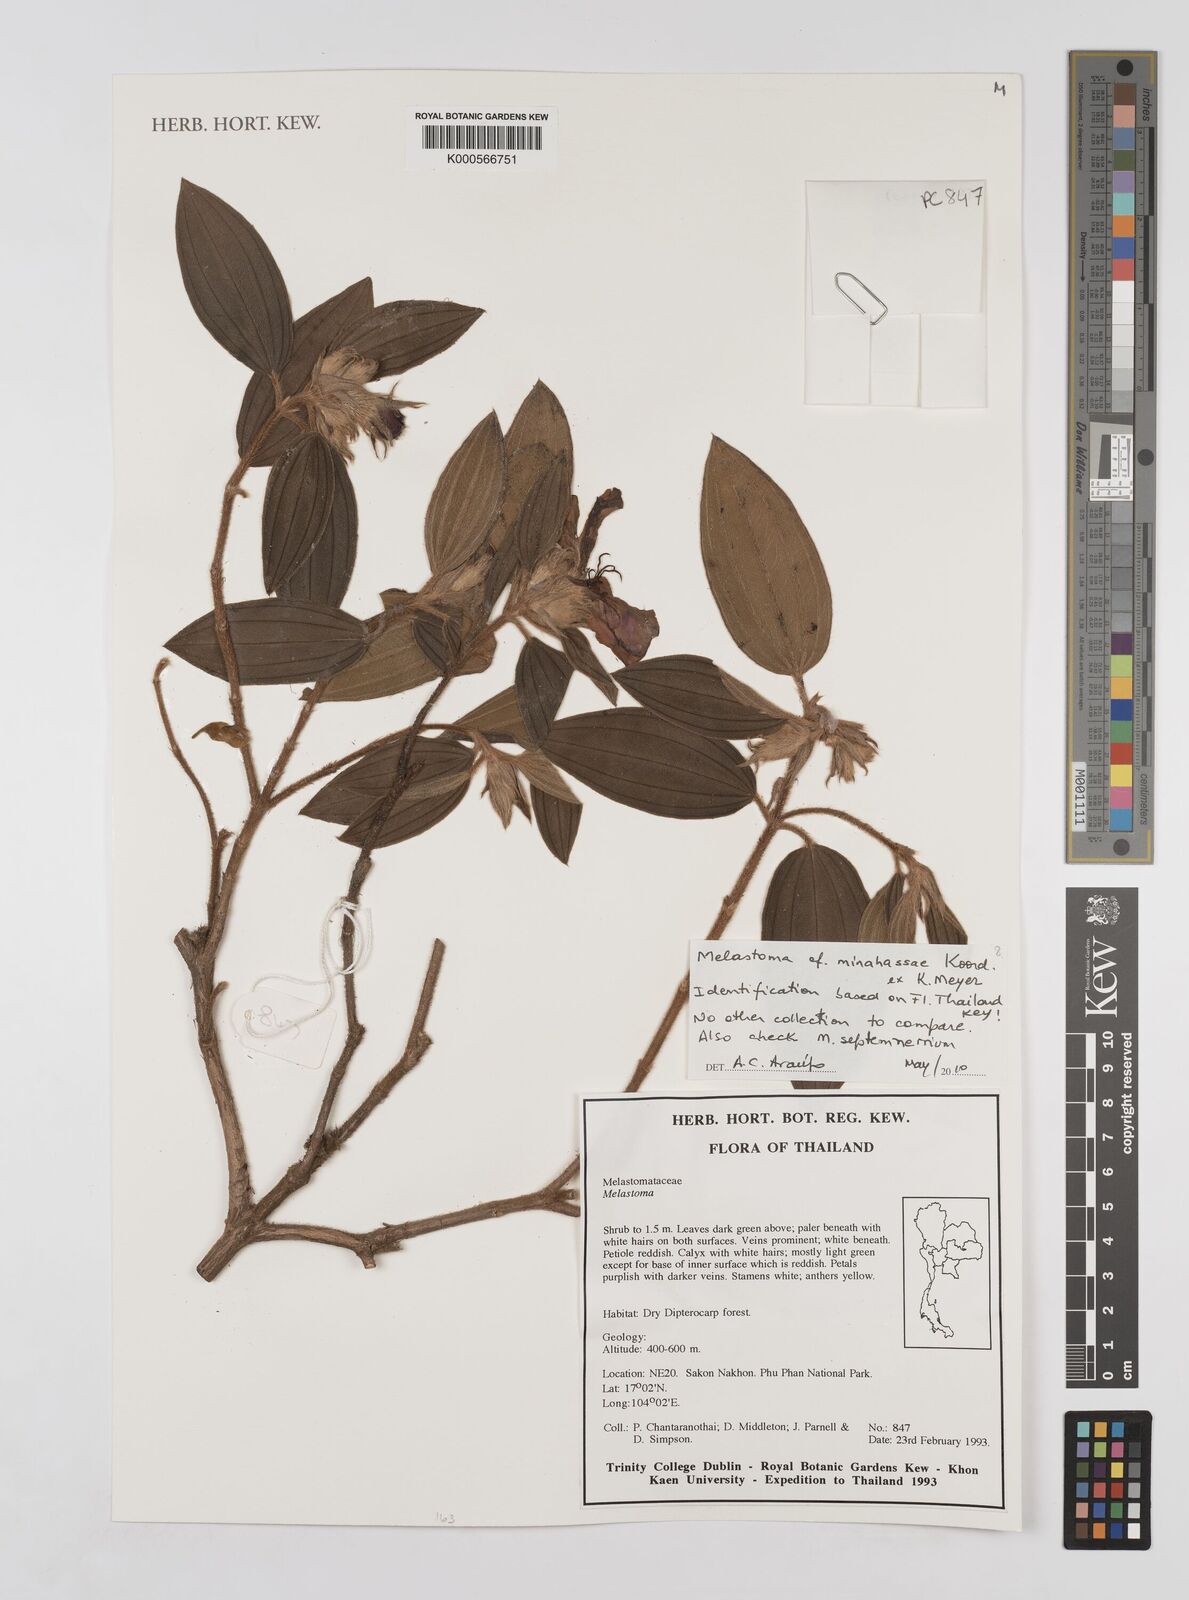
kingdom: Plantae
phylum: Tracheophyta
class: Magnoliopsida
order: Myrtales
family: Melastomataceae
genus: Melastoma
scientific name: Melastoma minahassae
